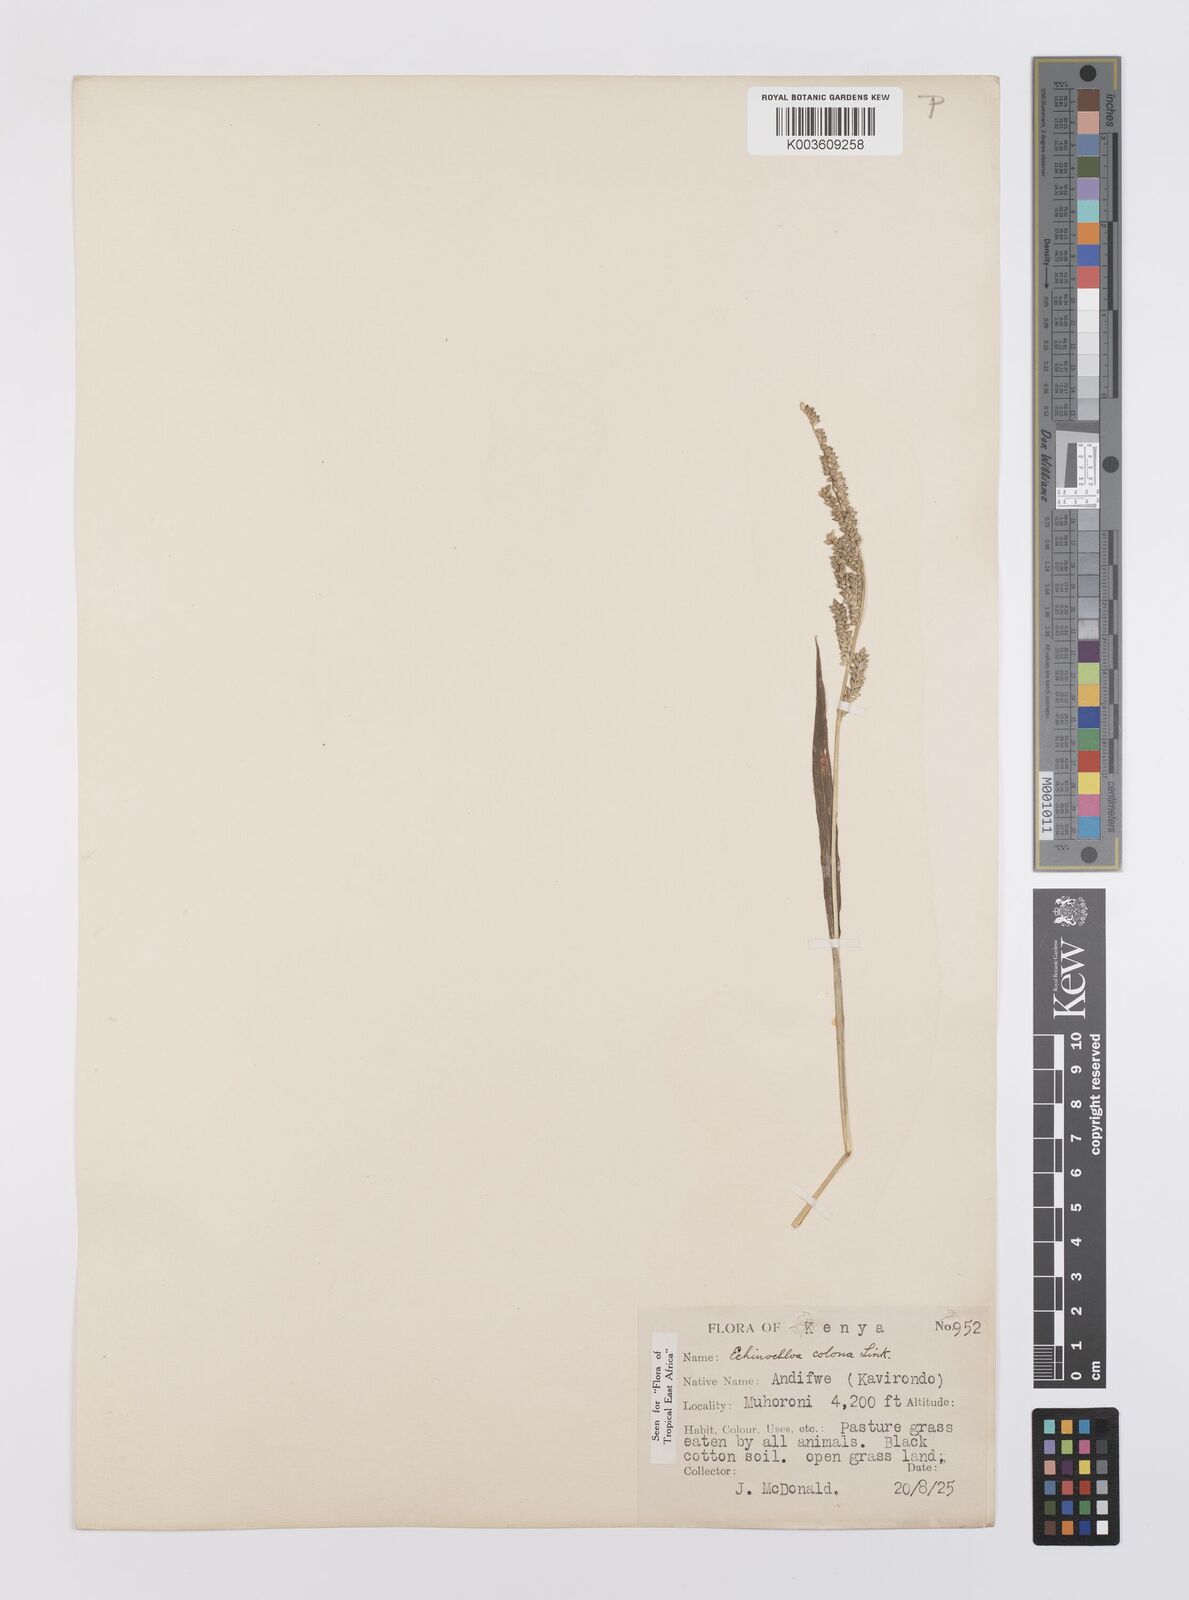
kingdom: Plantae
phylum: Tracheophyta
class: Liliopsida
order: Poales
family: Poaceae
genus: Echinochloa
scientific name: Echinochloa colonum
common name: Jungle rice
